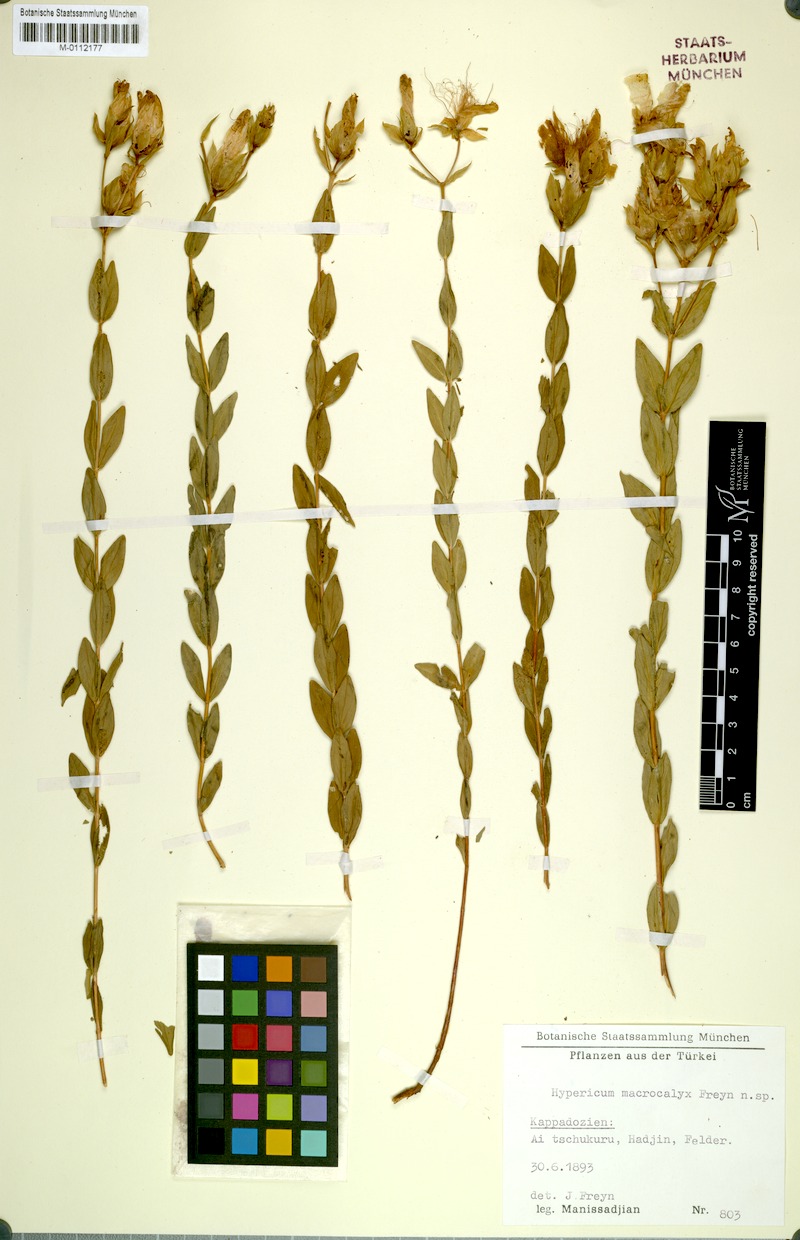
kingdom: Plantae
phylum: Tracheophyta
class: Magnoliopsida
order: Malpighiales
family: Hypericaceae
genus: Hypericum
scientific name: Hypericum polyphyllum
